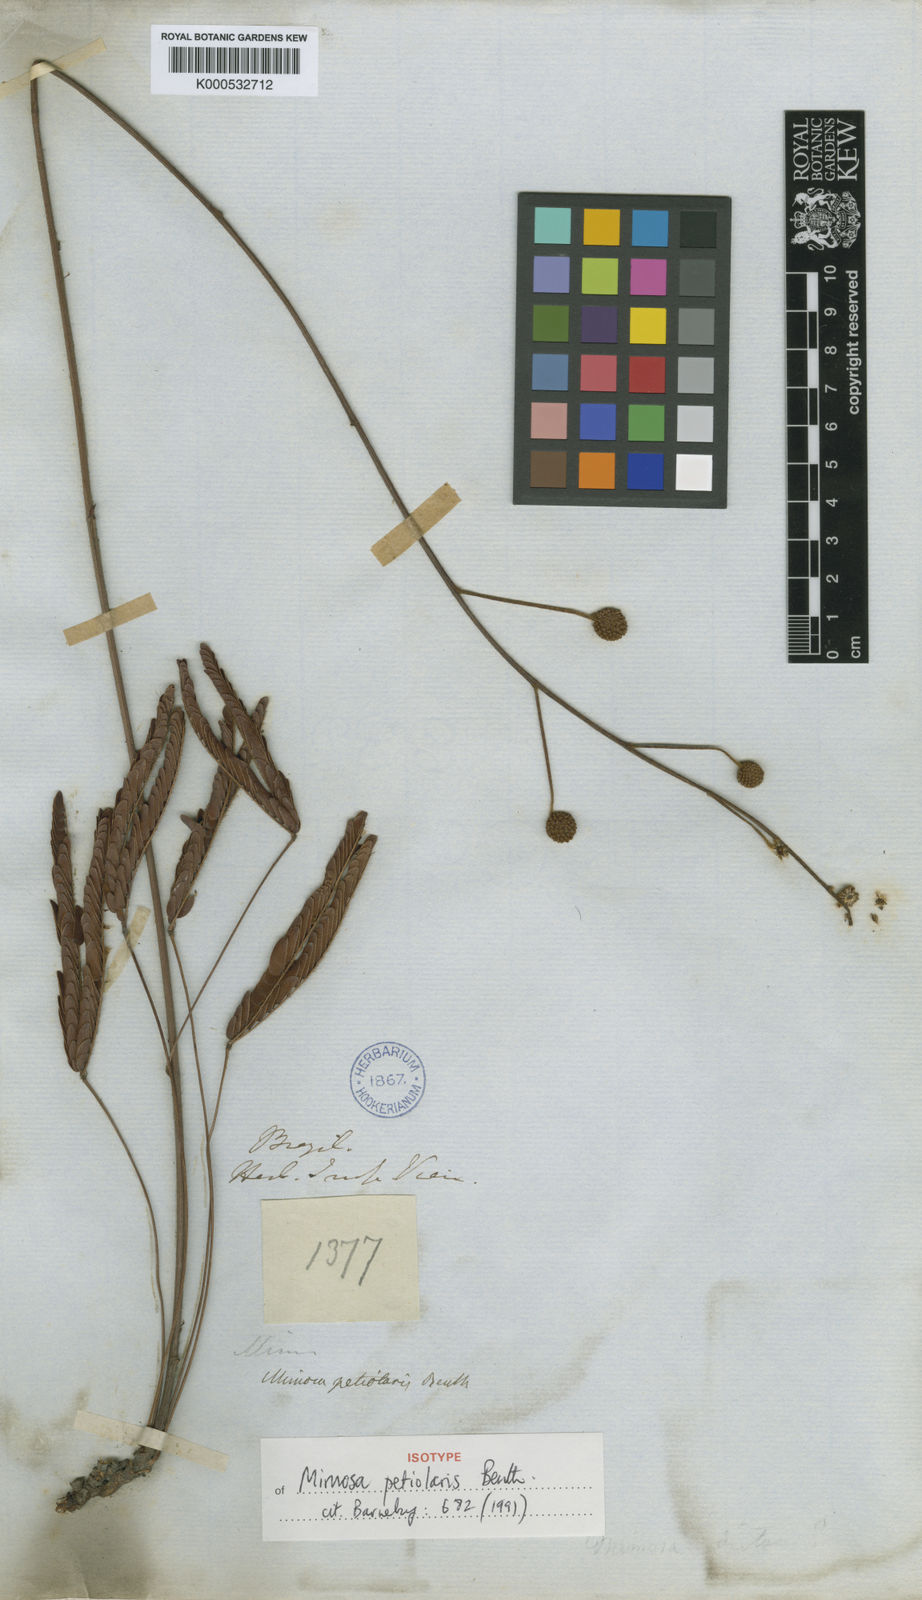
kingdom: Plantae
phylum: Tracheophyta
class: Magnoliopsida
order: Fabales
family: Fabaceae
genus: Mimosa
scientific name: Mimosa petiolaris
